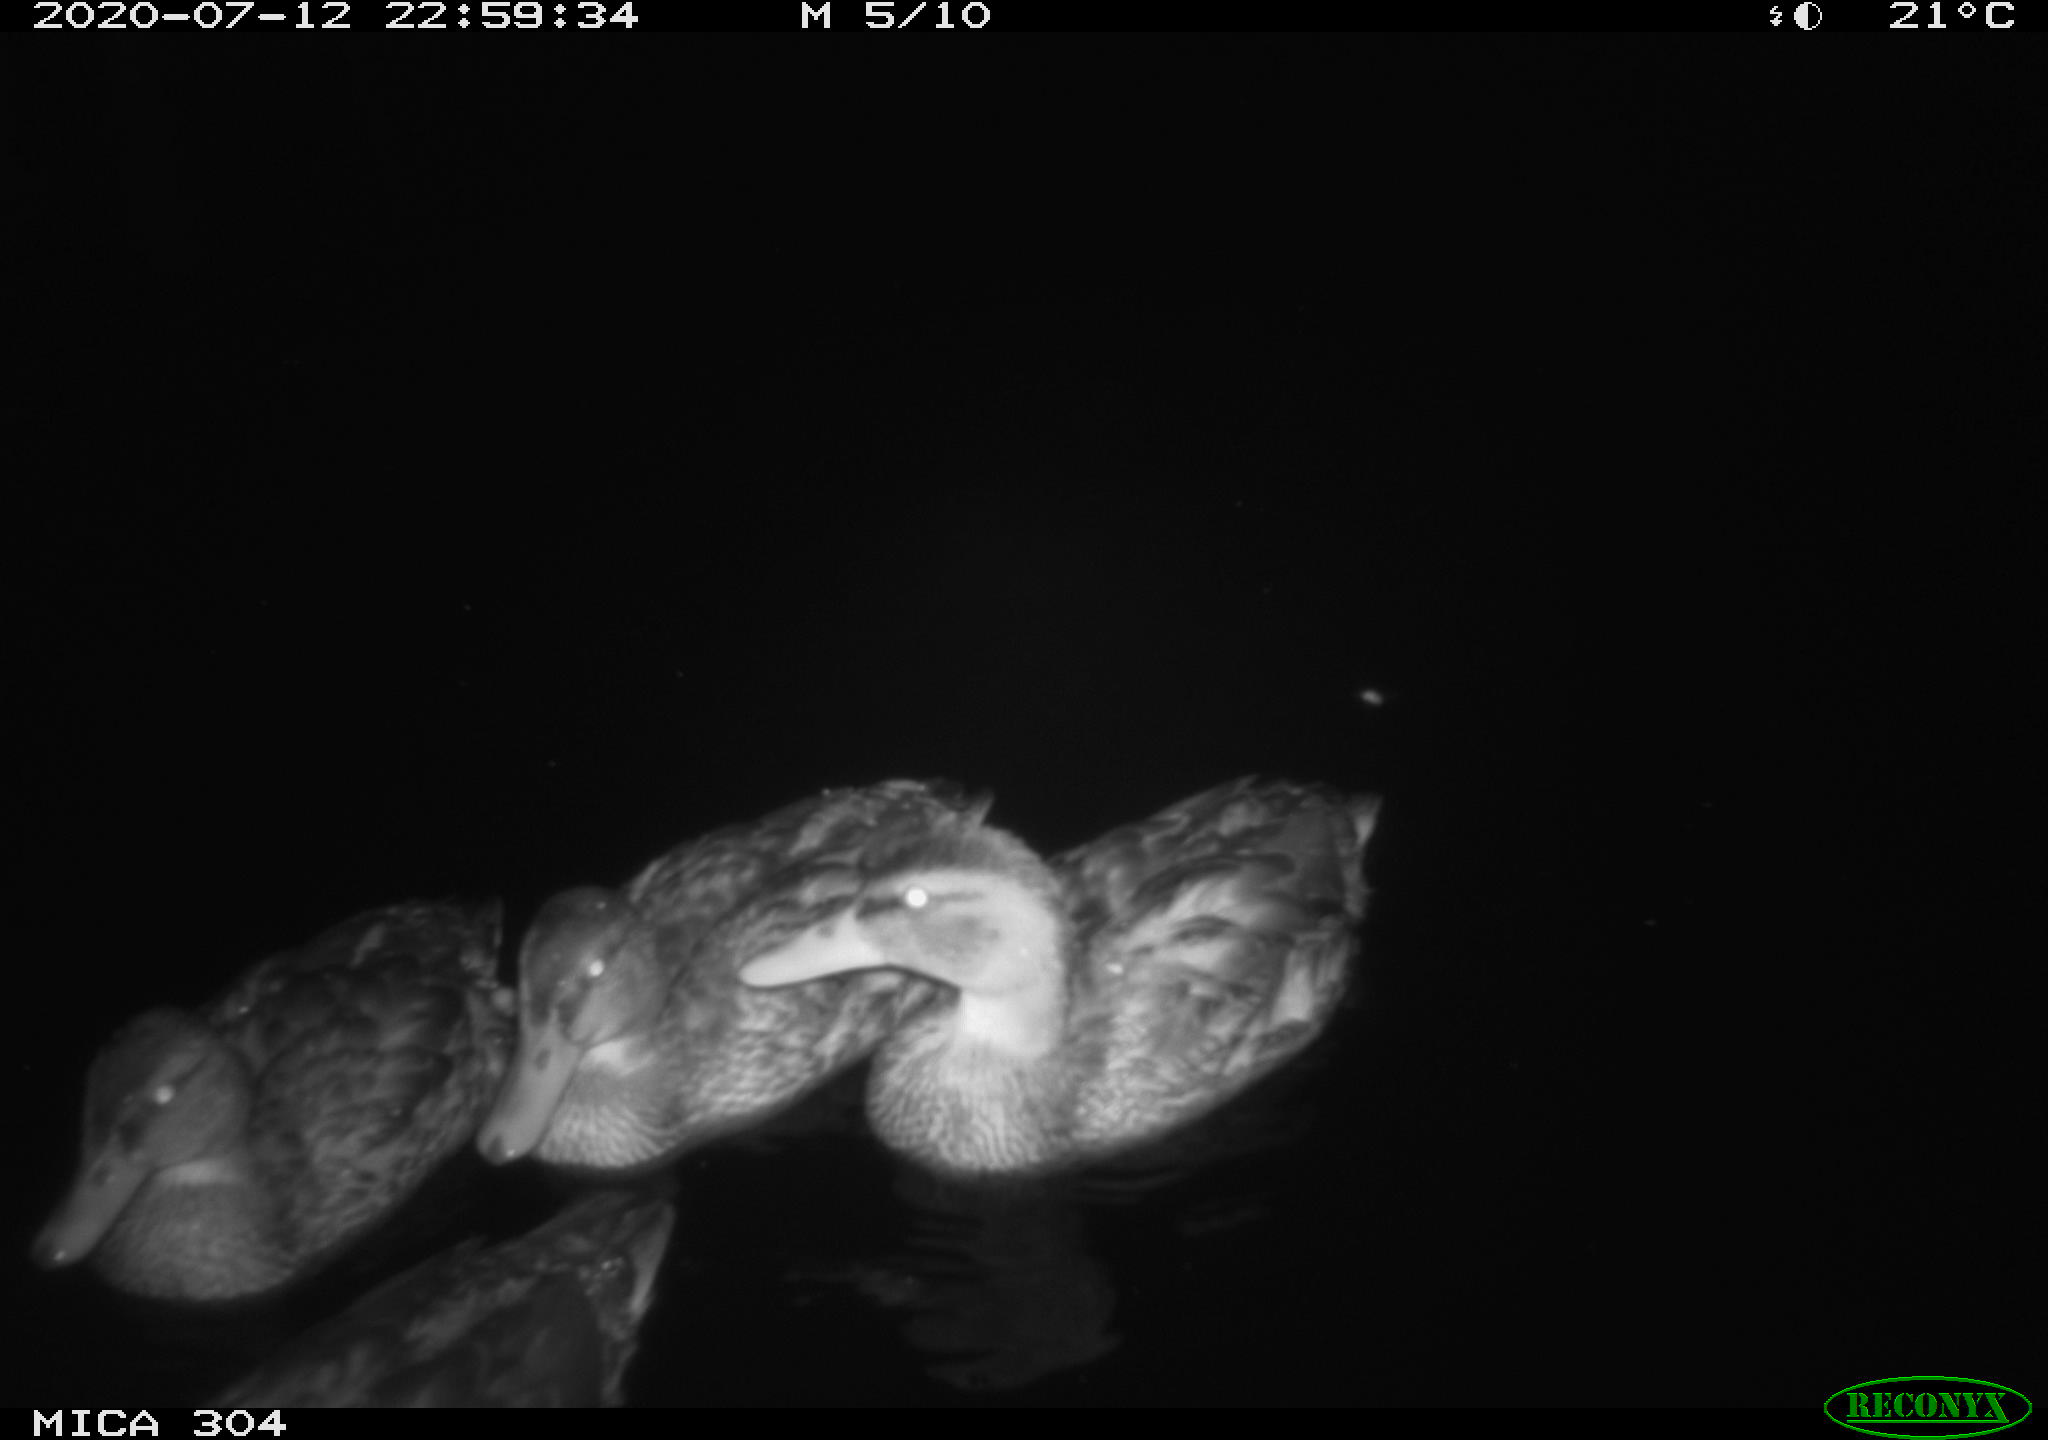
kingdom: Animalia
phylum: Chordata
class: Aves
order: Anseriformes
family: Anatidae
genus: Anas
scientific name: Anas platyrhynchos
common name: Mallard
